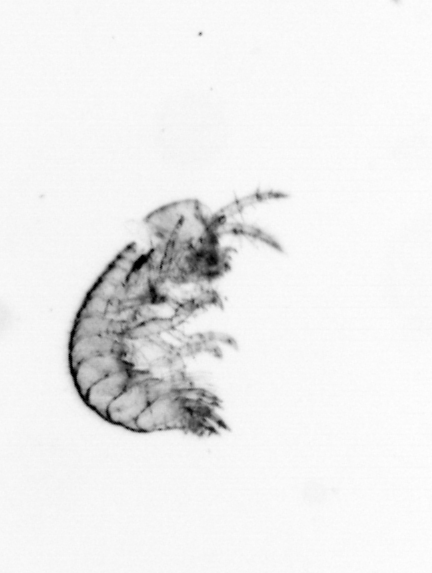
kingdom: Animalia
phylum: Arthropoda
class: Maxillopoda
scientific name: Maxillopoda
